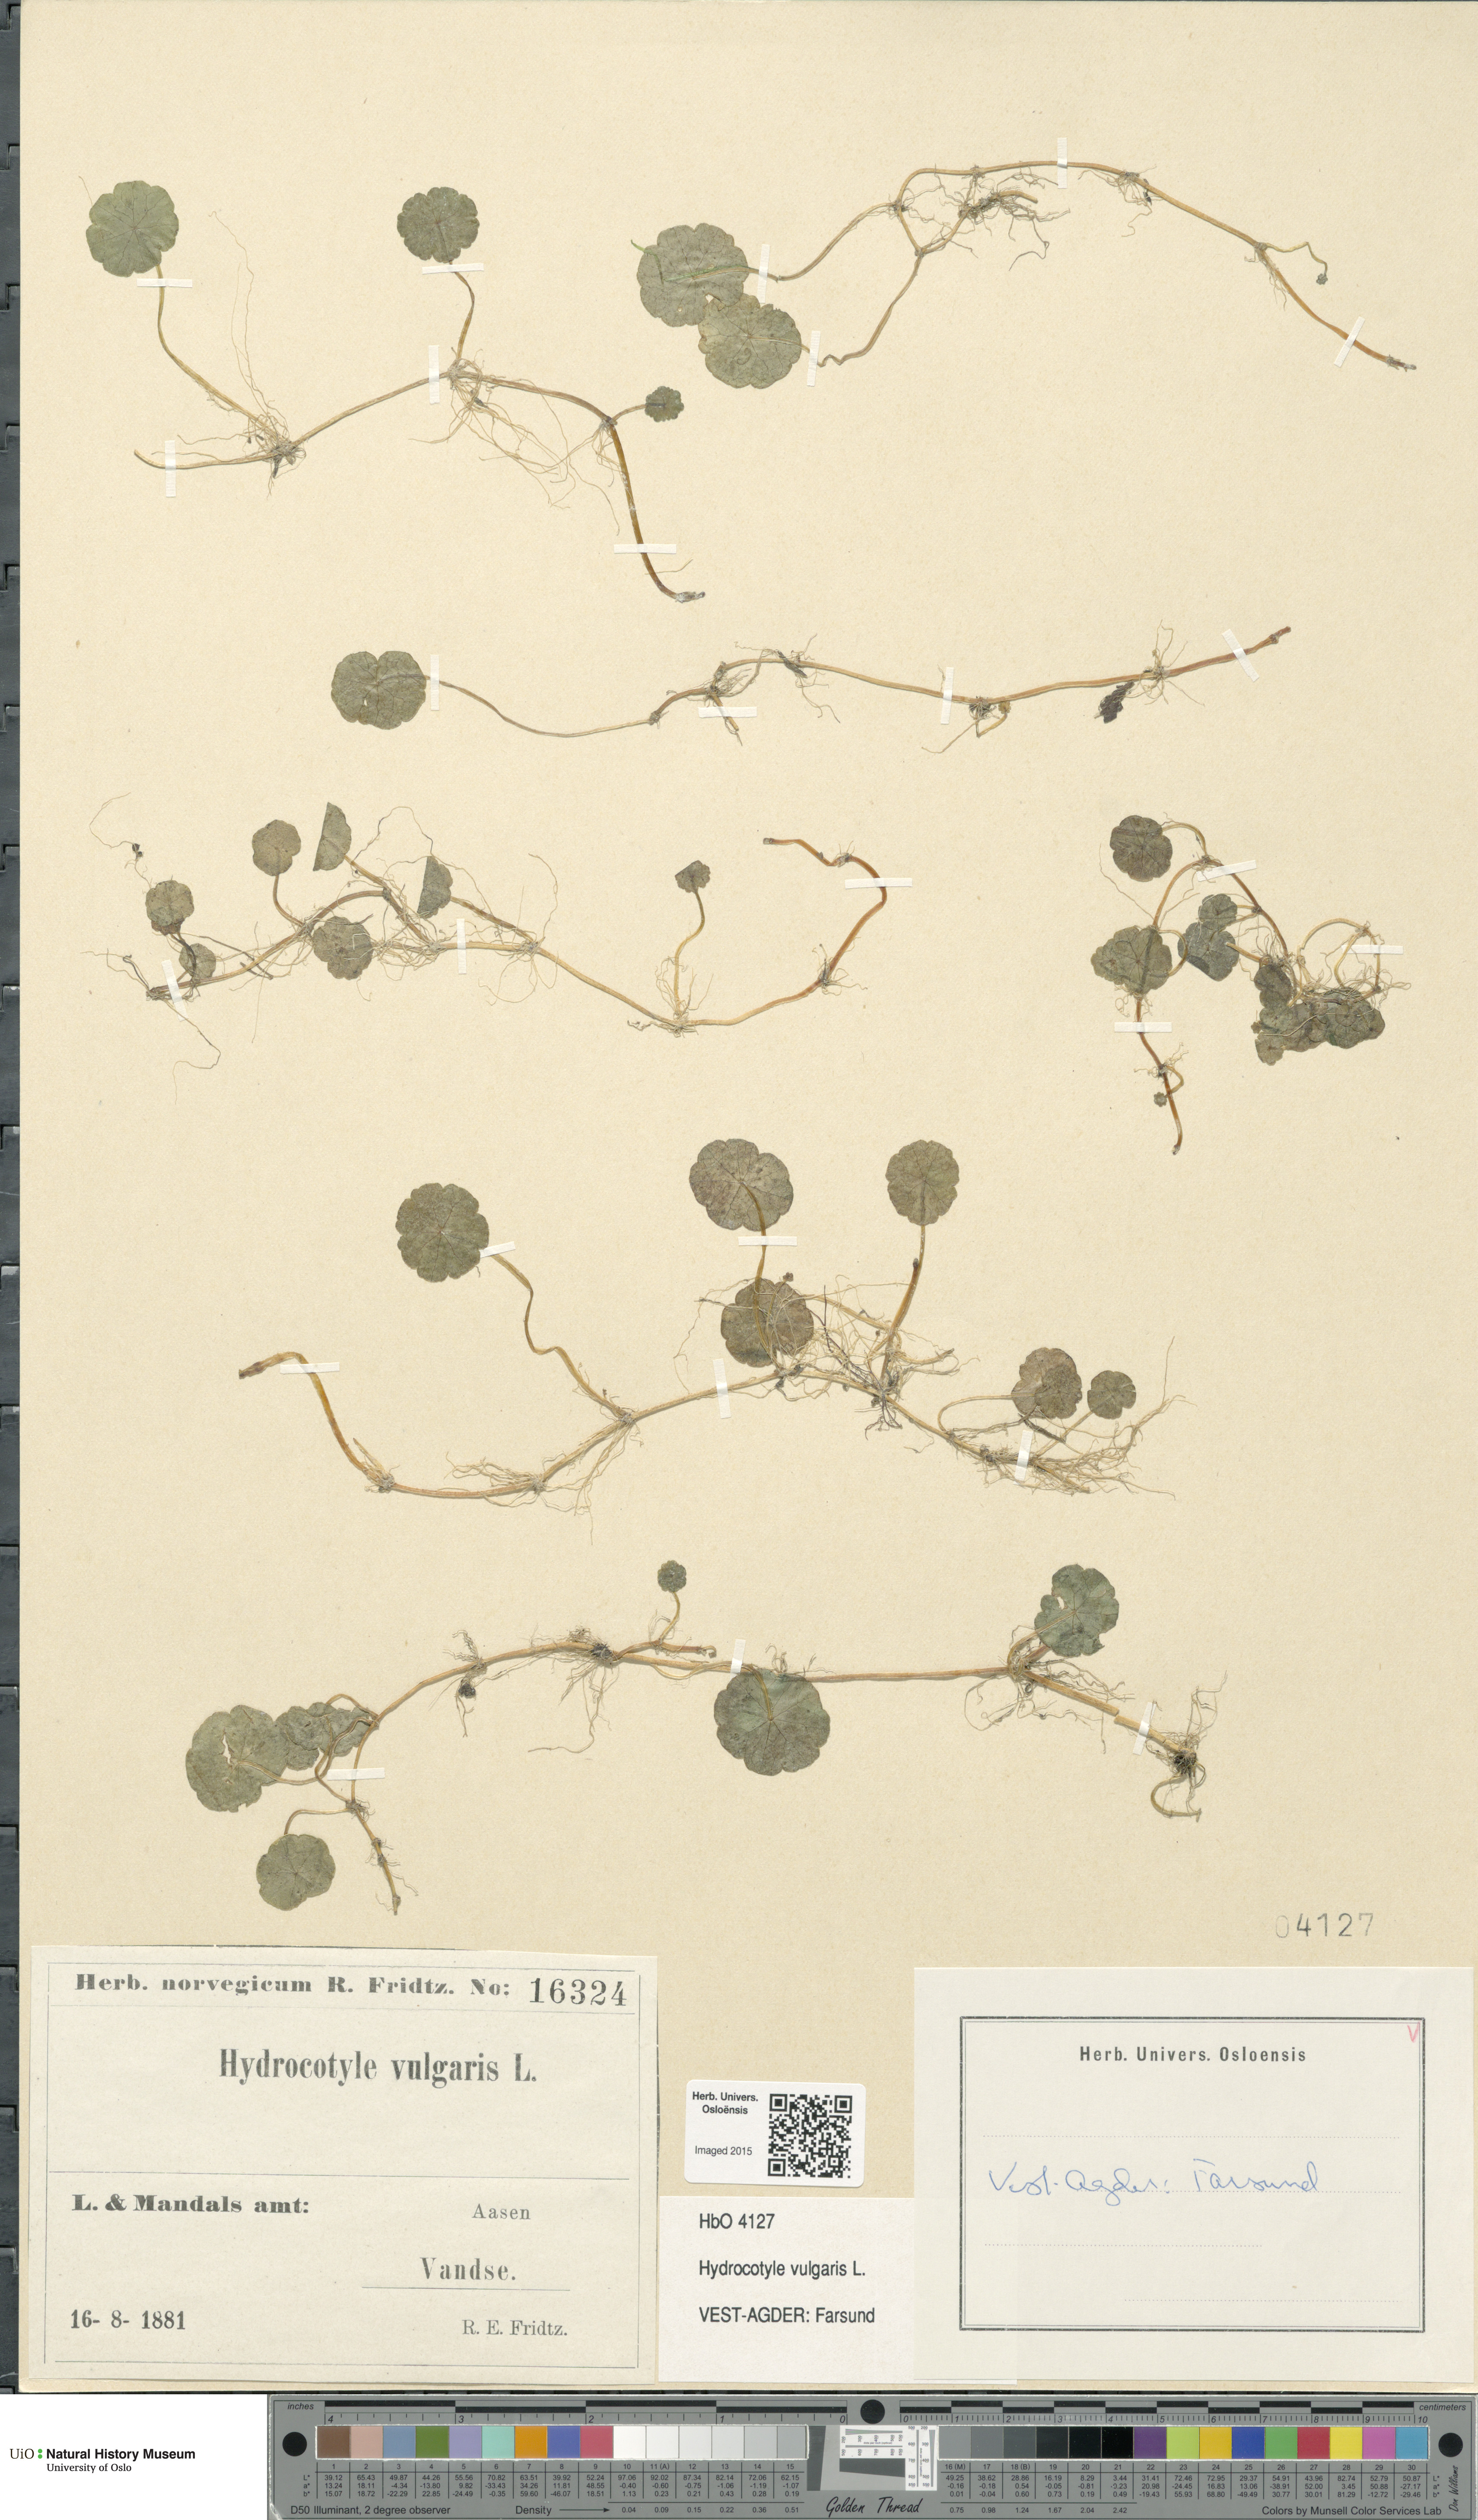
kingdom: Plantae
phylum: Tracheophyta
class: Magnoliopsida
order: Apiales
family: Araliaceae
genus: Hydrocotyle
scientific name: Hydrocotyle vulgaris
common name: Marsh pennywort
